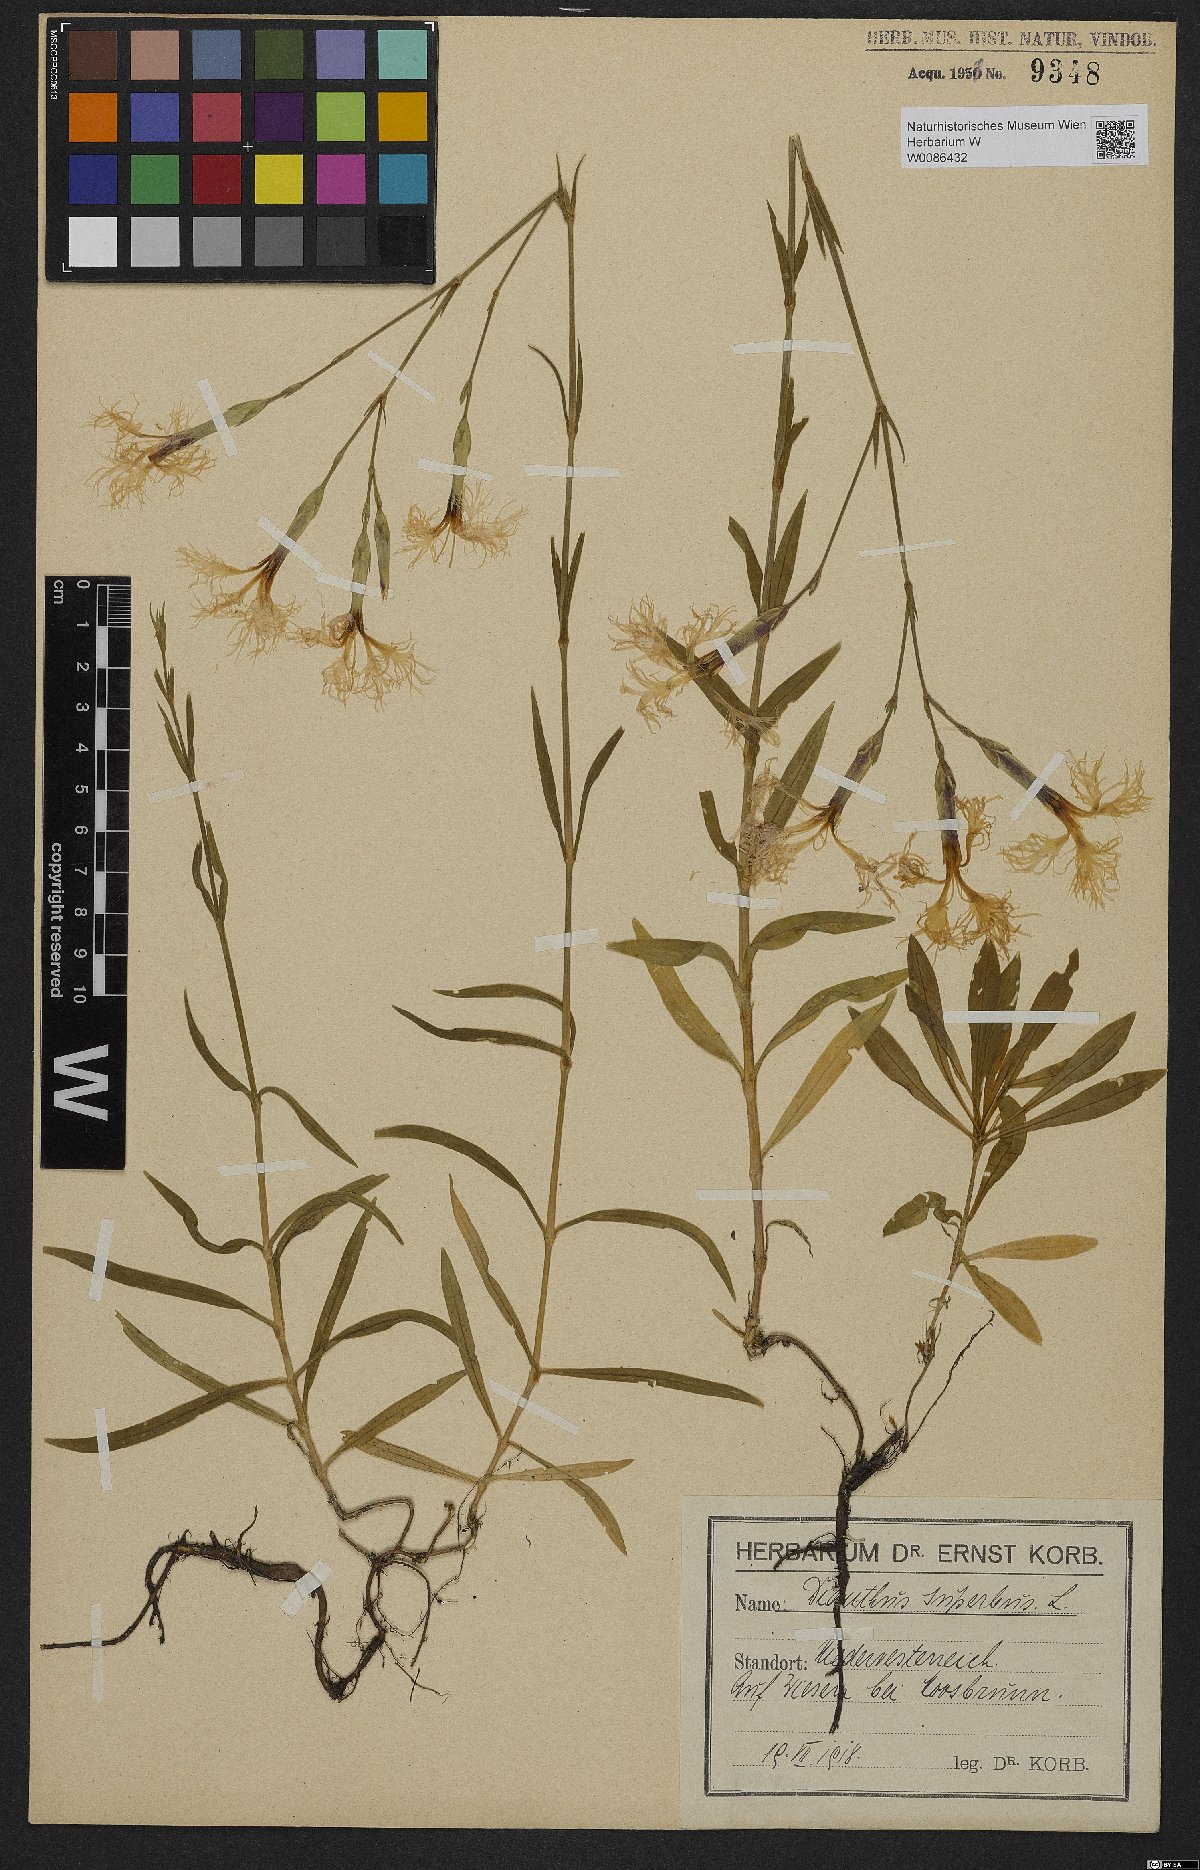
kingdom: Plantae
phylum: Tracheophyta
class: Magnoliopsida
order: Caryophyllales
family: Caryophyllaceae
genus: Dianthus
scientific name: Dianthus superbus
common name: Fringed pink
